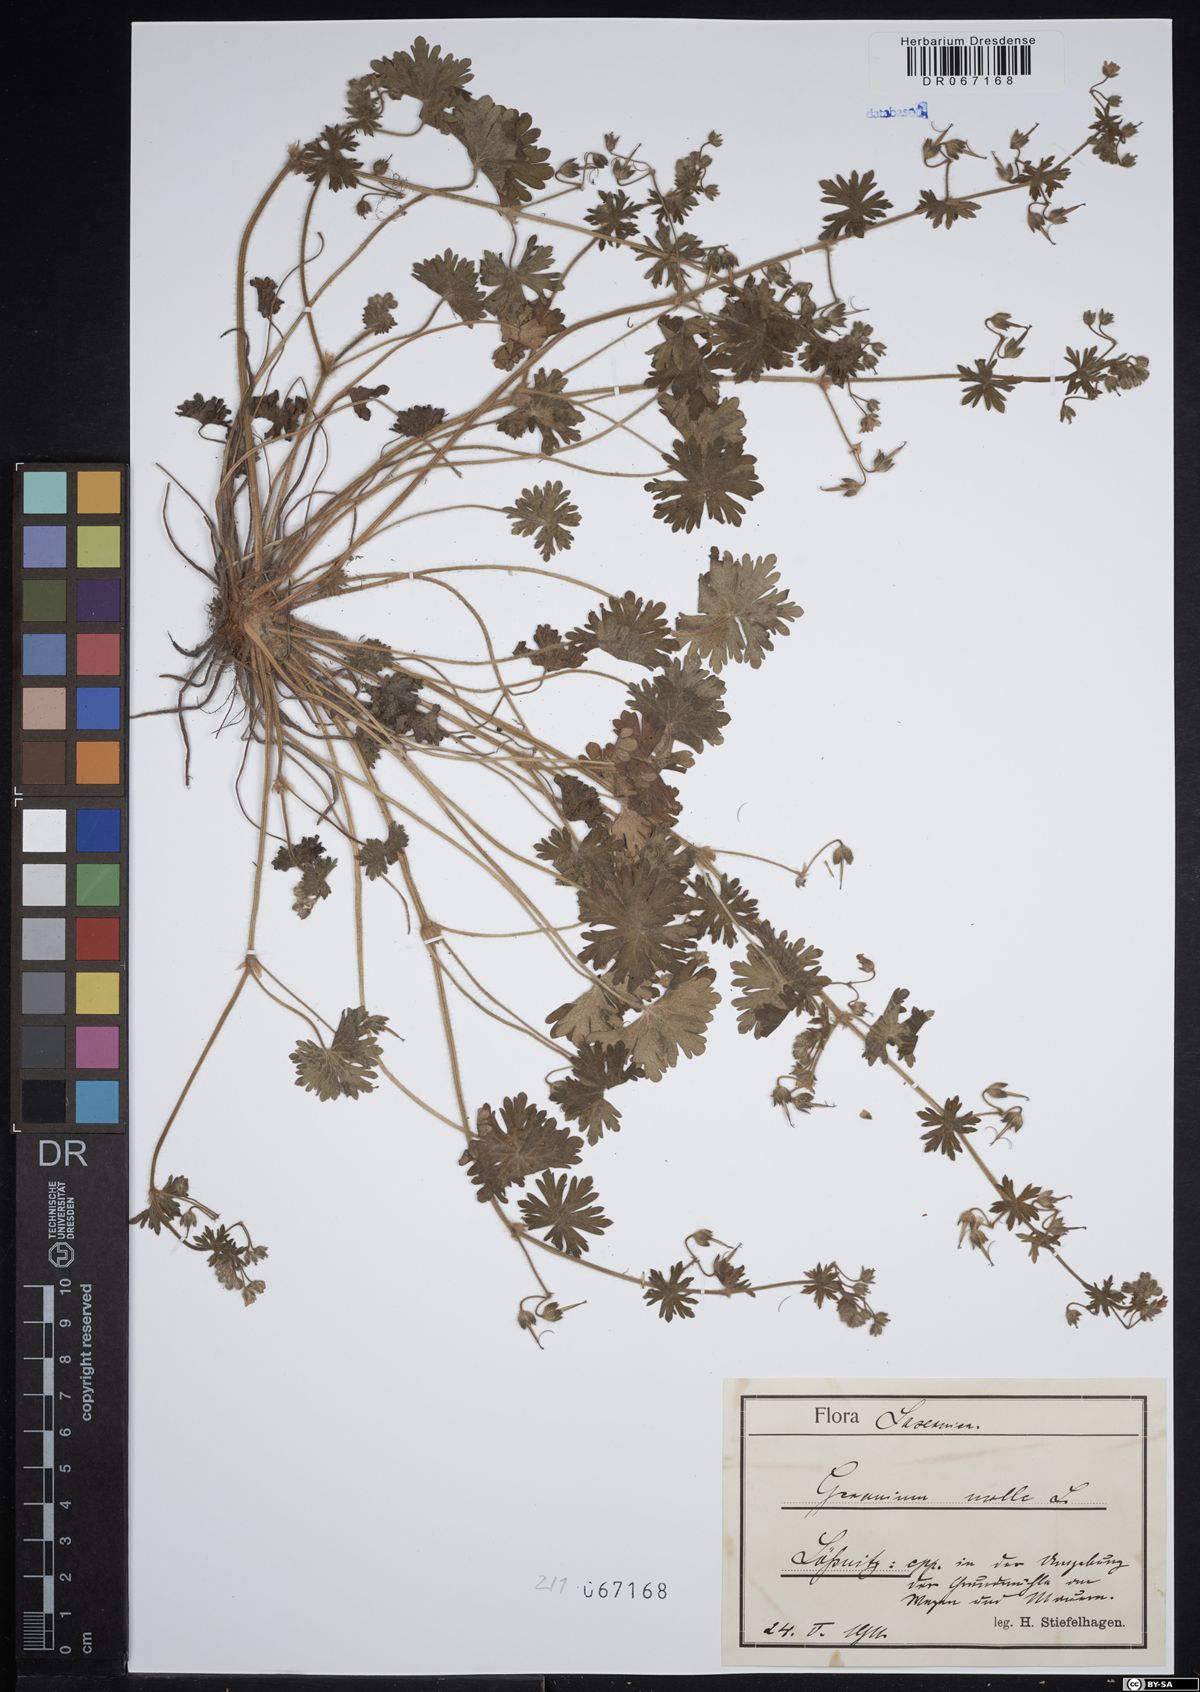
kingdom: Plantae
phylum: Tracheophyta
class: Magnoliopsida
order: Geraniales
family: Geraniaceae
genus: Geranium
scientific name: Geranium molle
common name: Dove's-foot crane's-bill
